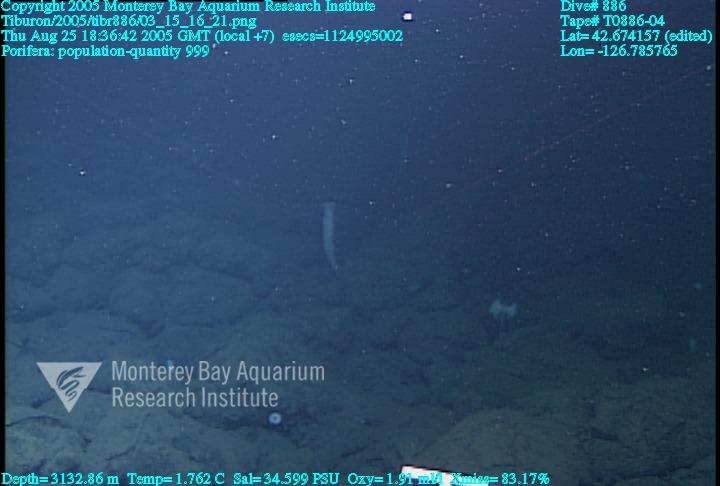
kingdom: Animalia
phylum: Porifera
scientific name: Porifera
